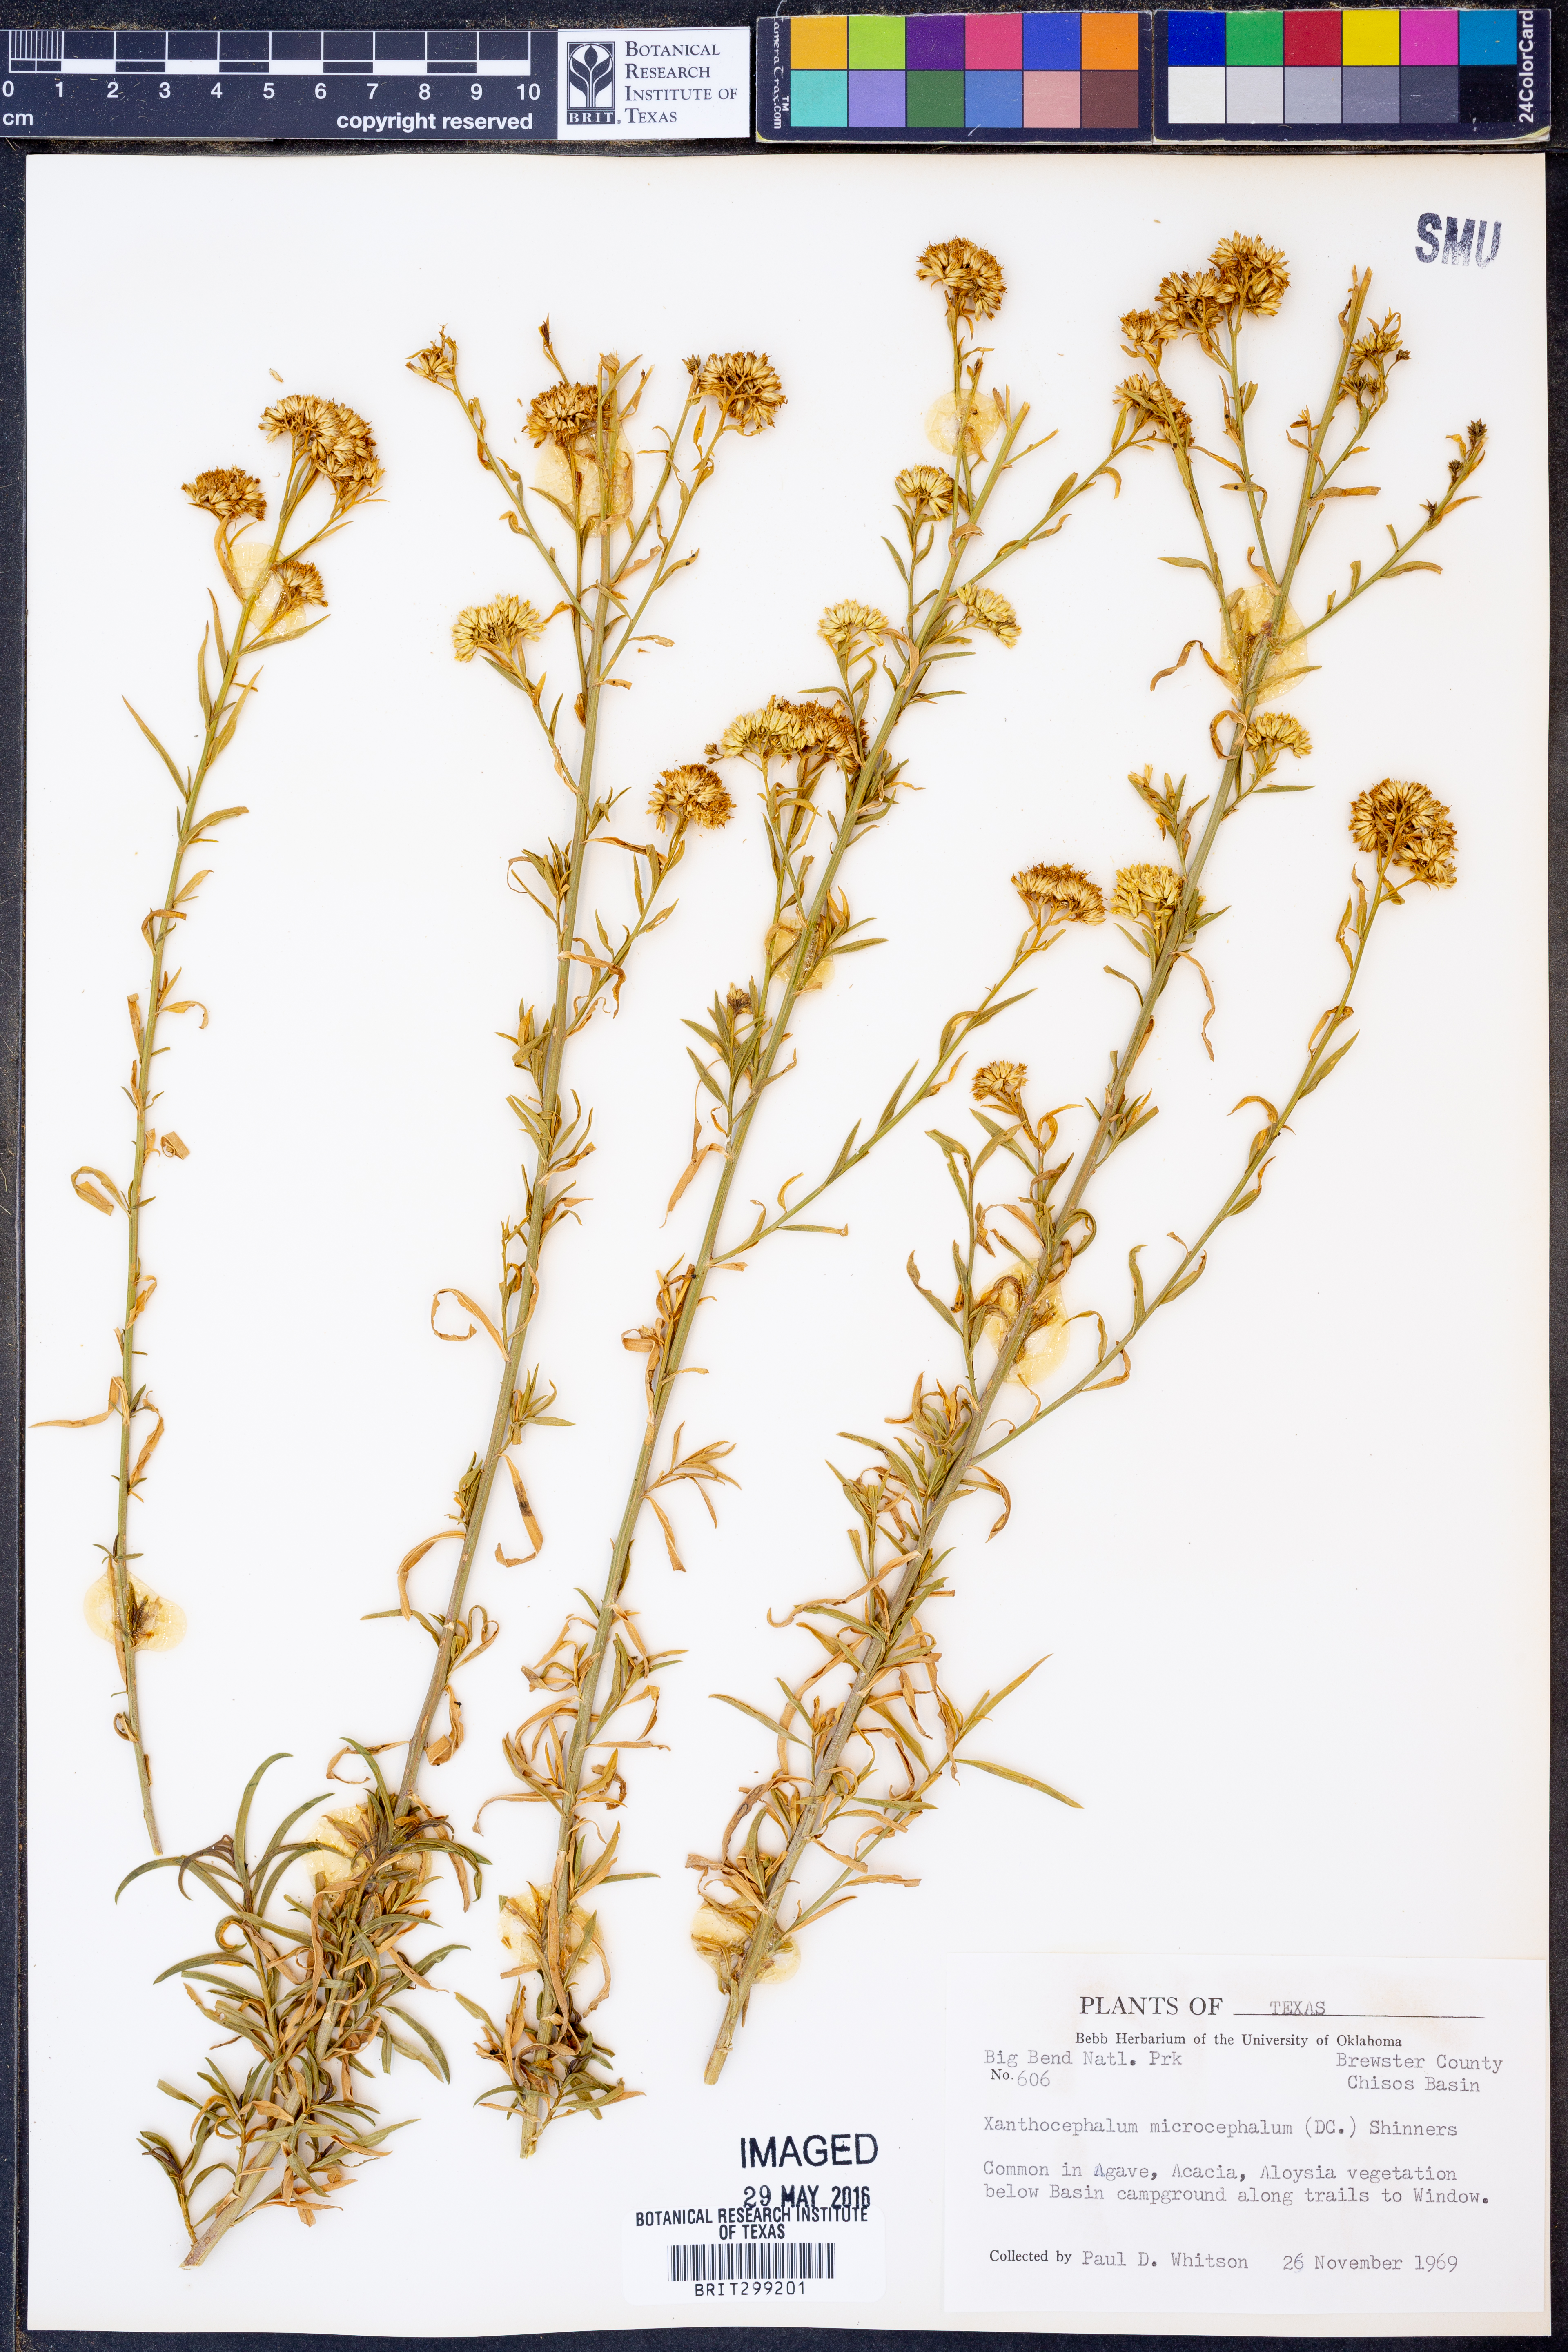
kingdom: Plantae
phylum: Tracheophyta
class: Magnoliopsida
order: Asterales
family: Asteraceae
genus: Gutierrezia
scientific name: Gutierrezia microcephala
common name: Thread snakeweed
